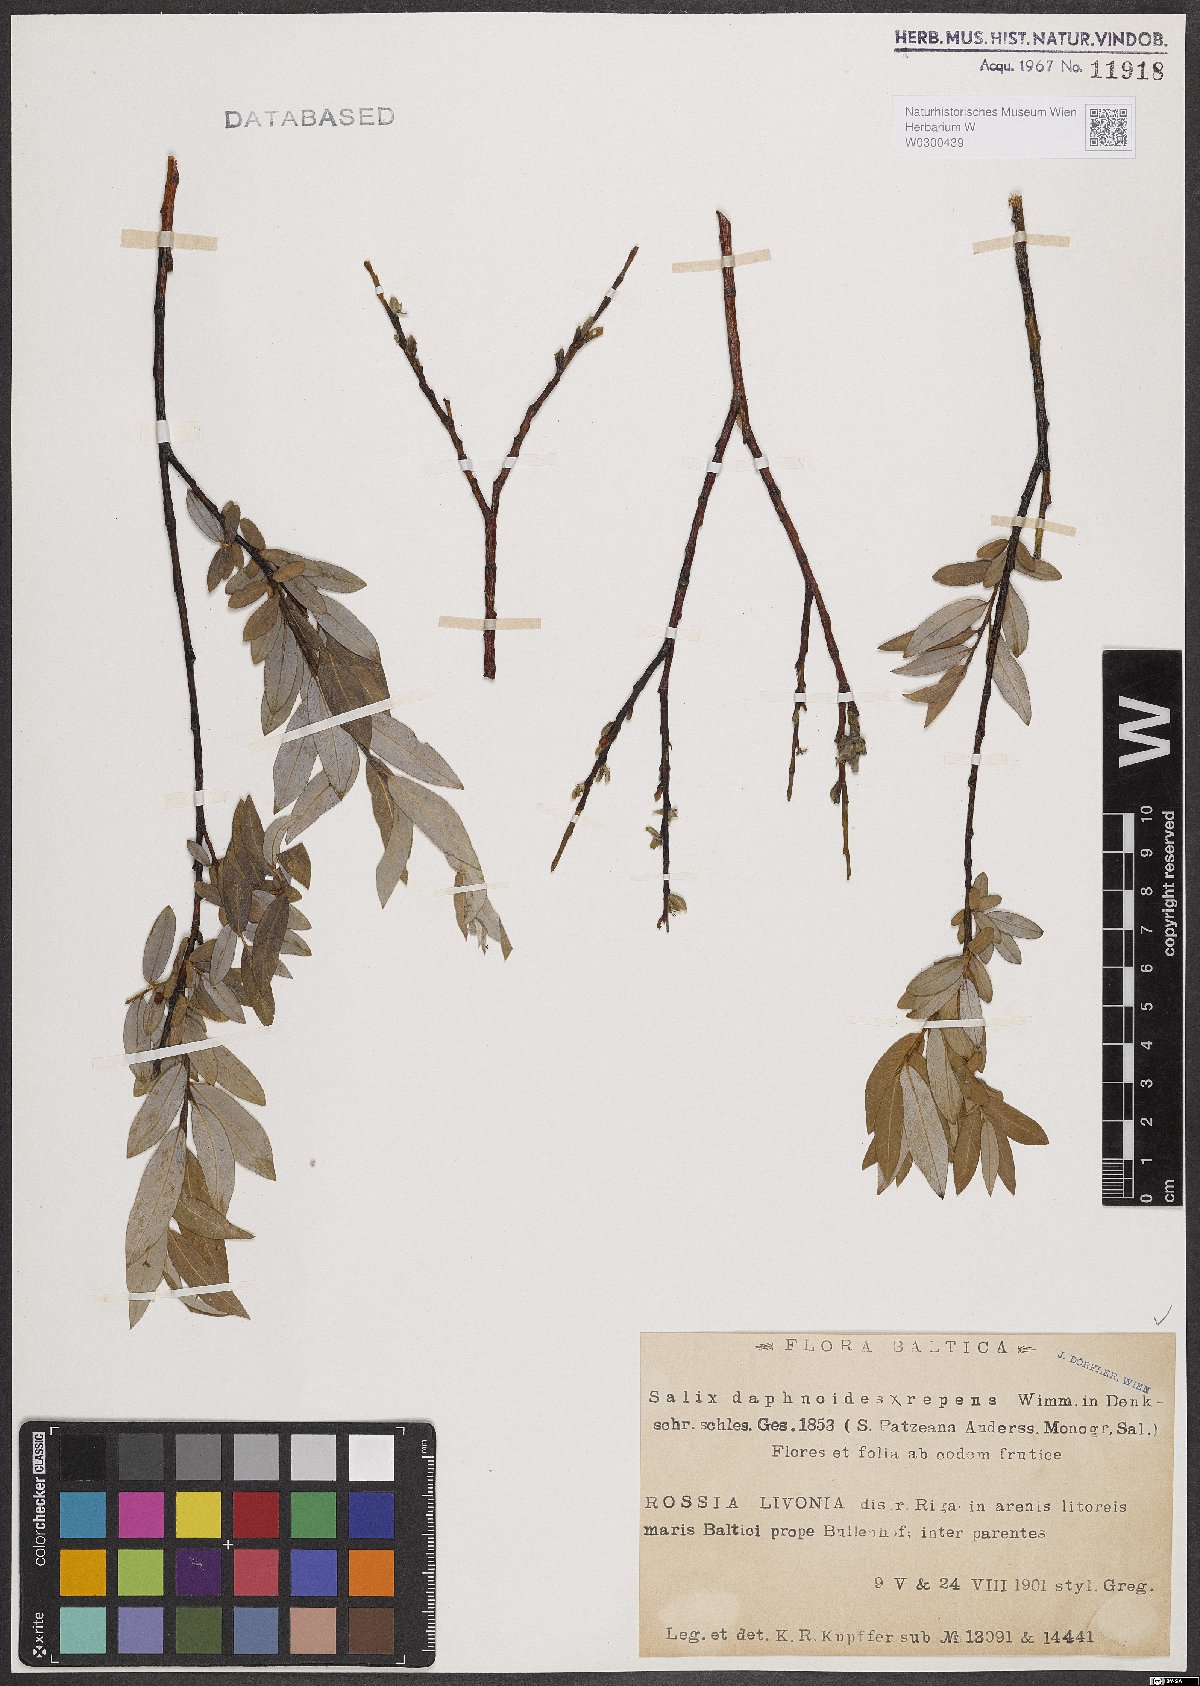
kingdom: Plantae
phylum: Tracheophyta
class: Magnoliopsida
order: Malpighiales
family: Salicaceae
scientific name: Salicaceae
